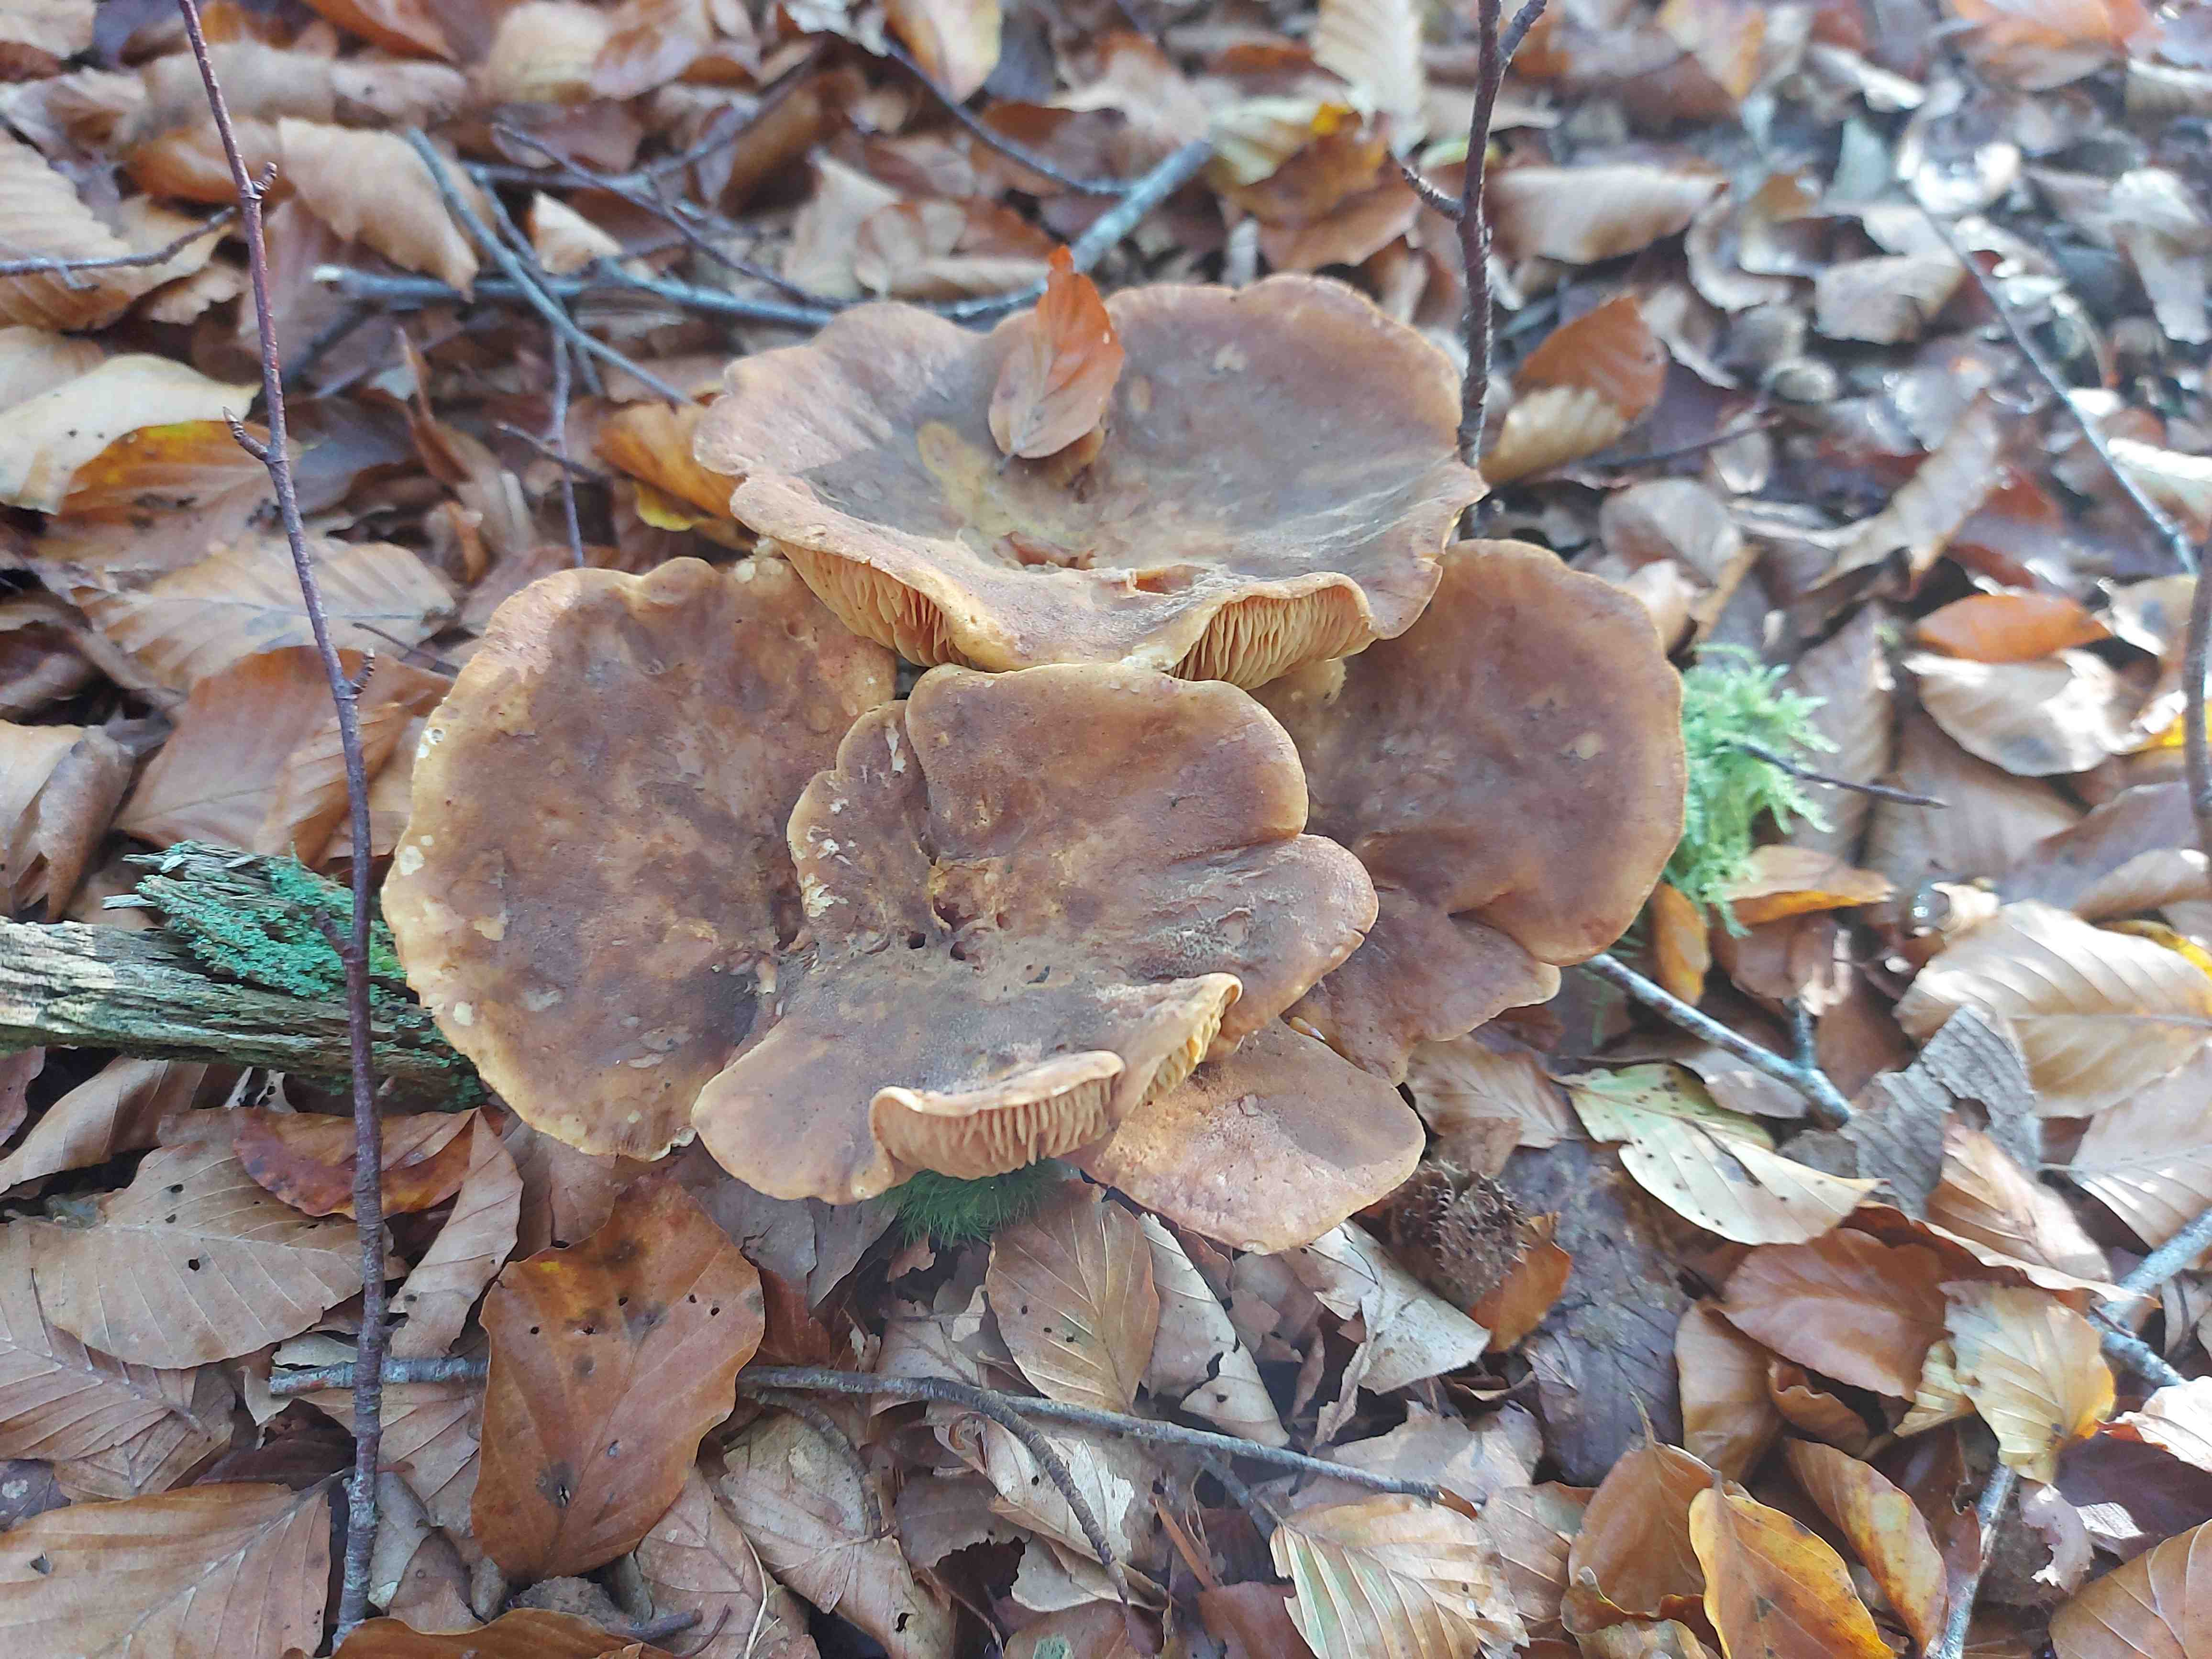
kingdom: Fungi
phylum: Basidiomycota
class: Agaricomycetes
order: Boletales
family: Tapinellaceae
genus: Tapinella
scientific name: Tapinella atrotomentosa
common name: sortfiltet viftesvamp
